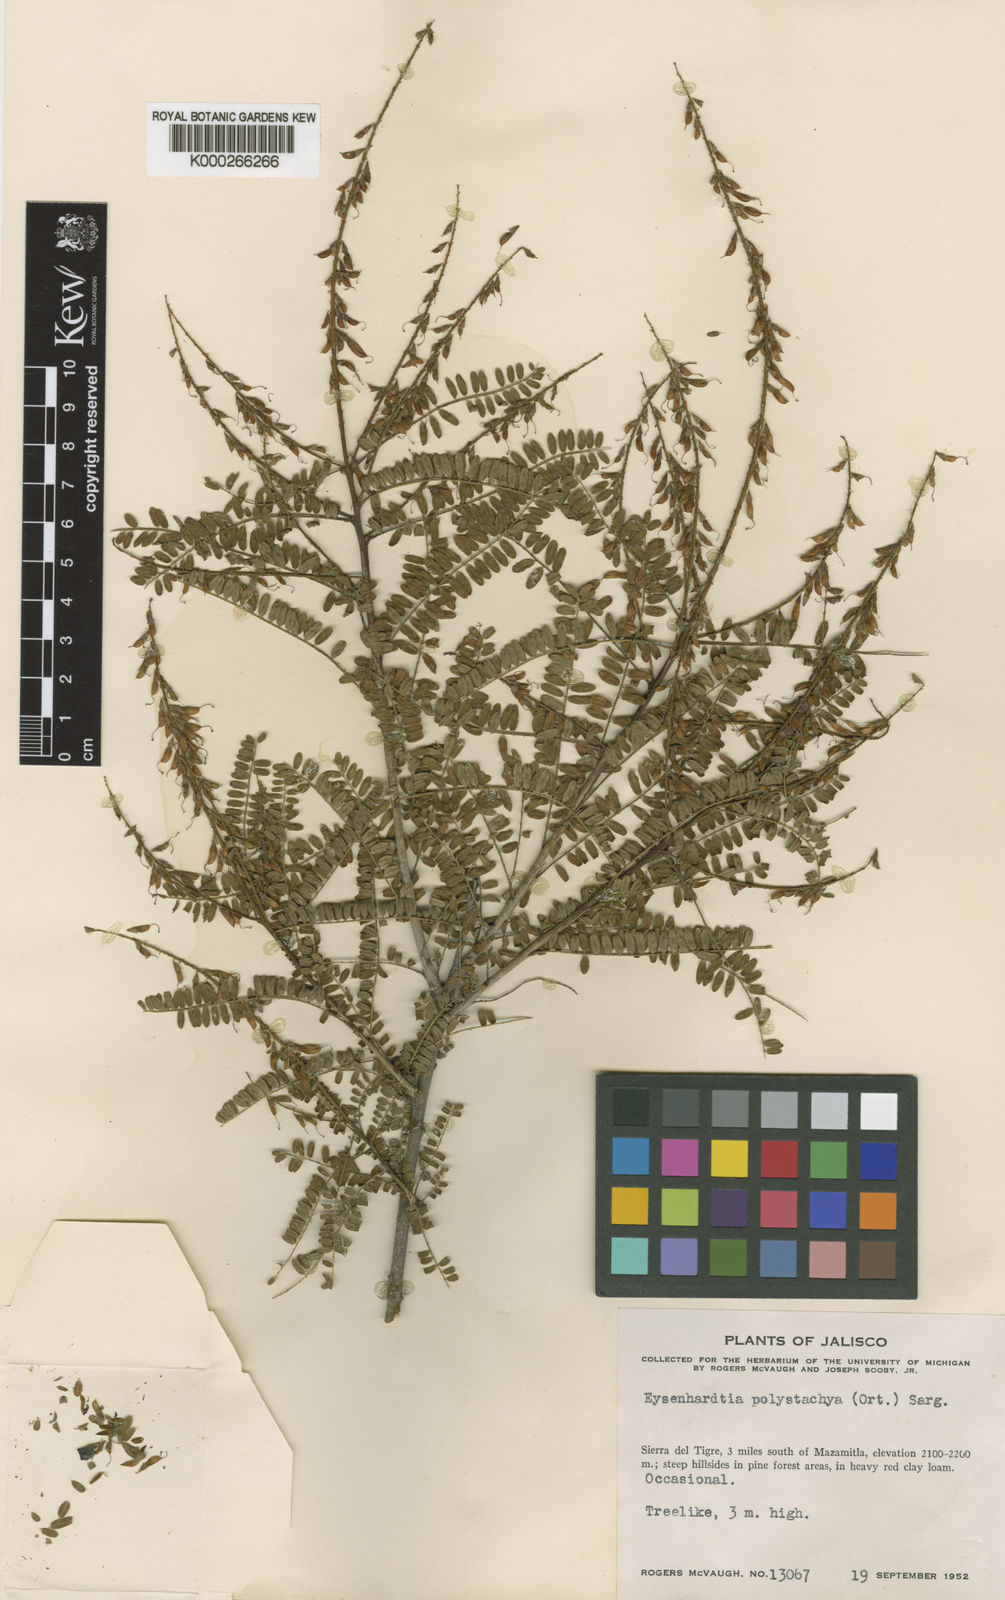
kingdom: Plantae
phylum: Tracheophyta
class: Magnoliopsida
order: Fabales
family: Fabaceae
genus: Eysenhardtia
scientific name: Eysenhardtia polystachya
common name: Kidneywood
